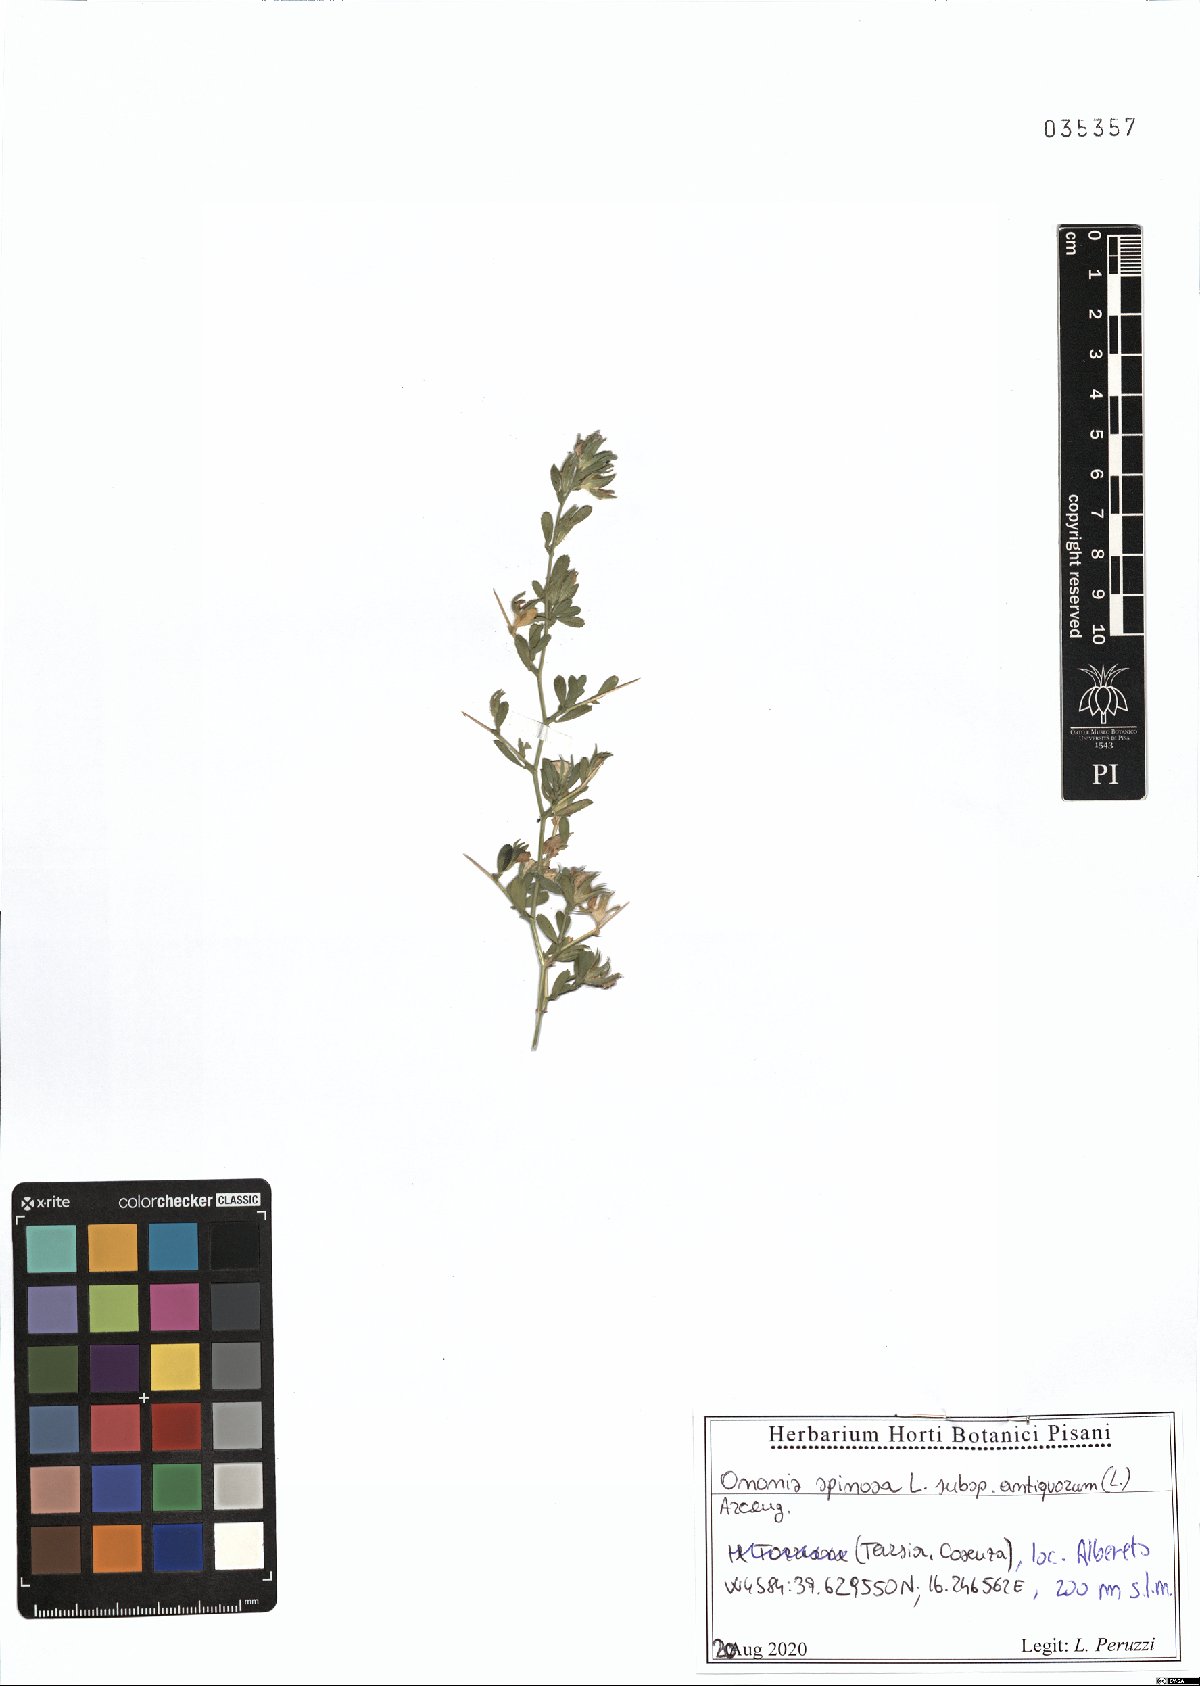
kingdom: Plantae
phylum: Tracheophyta
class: Magnoliopsida
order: Fabales
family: Fabaceae
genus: Ononis
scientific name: Ononis spinosa
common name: Spiny restharrow
